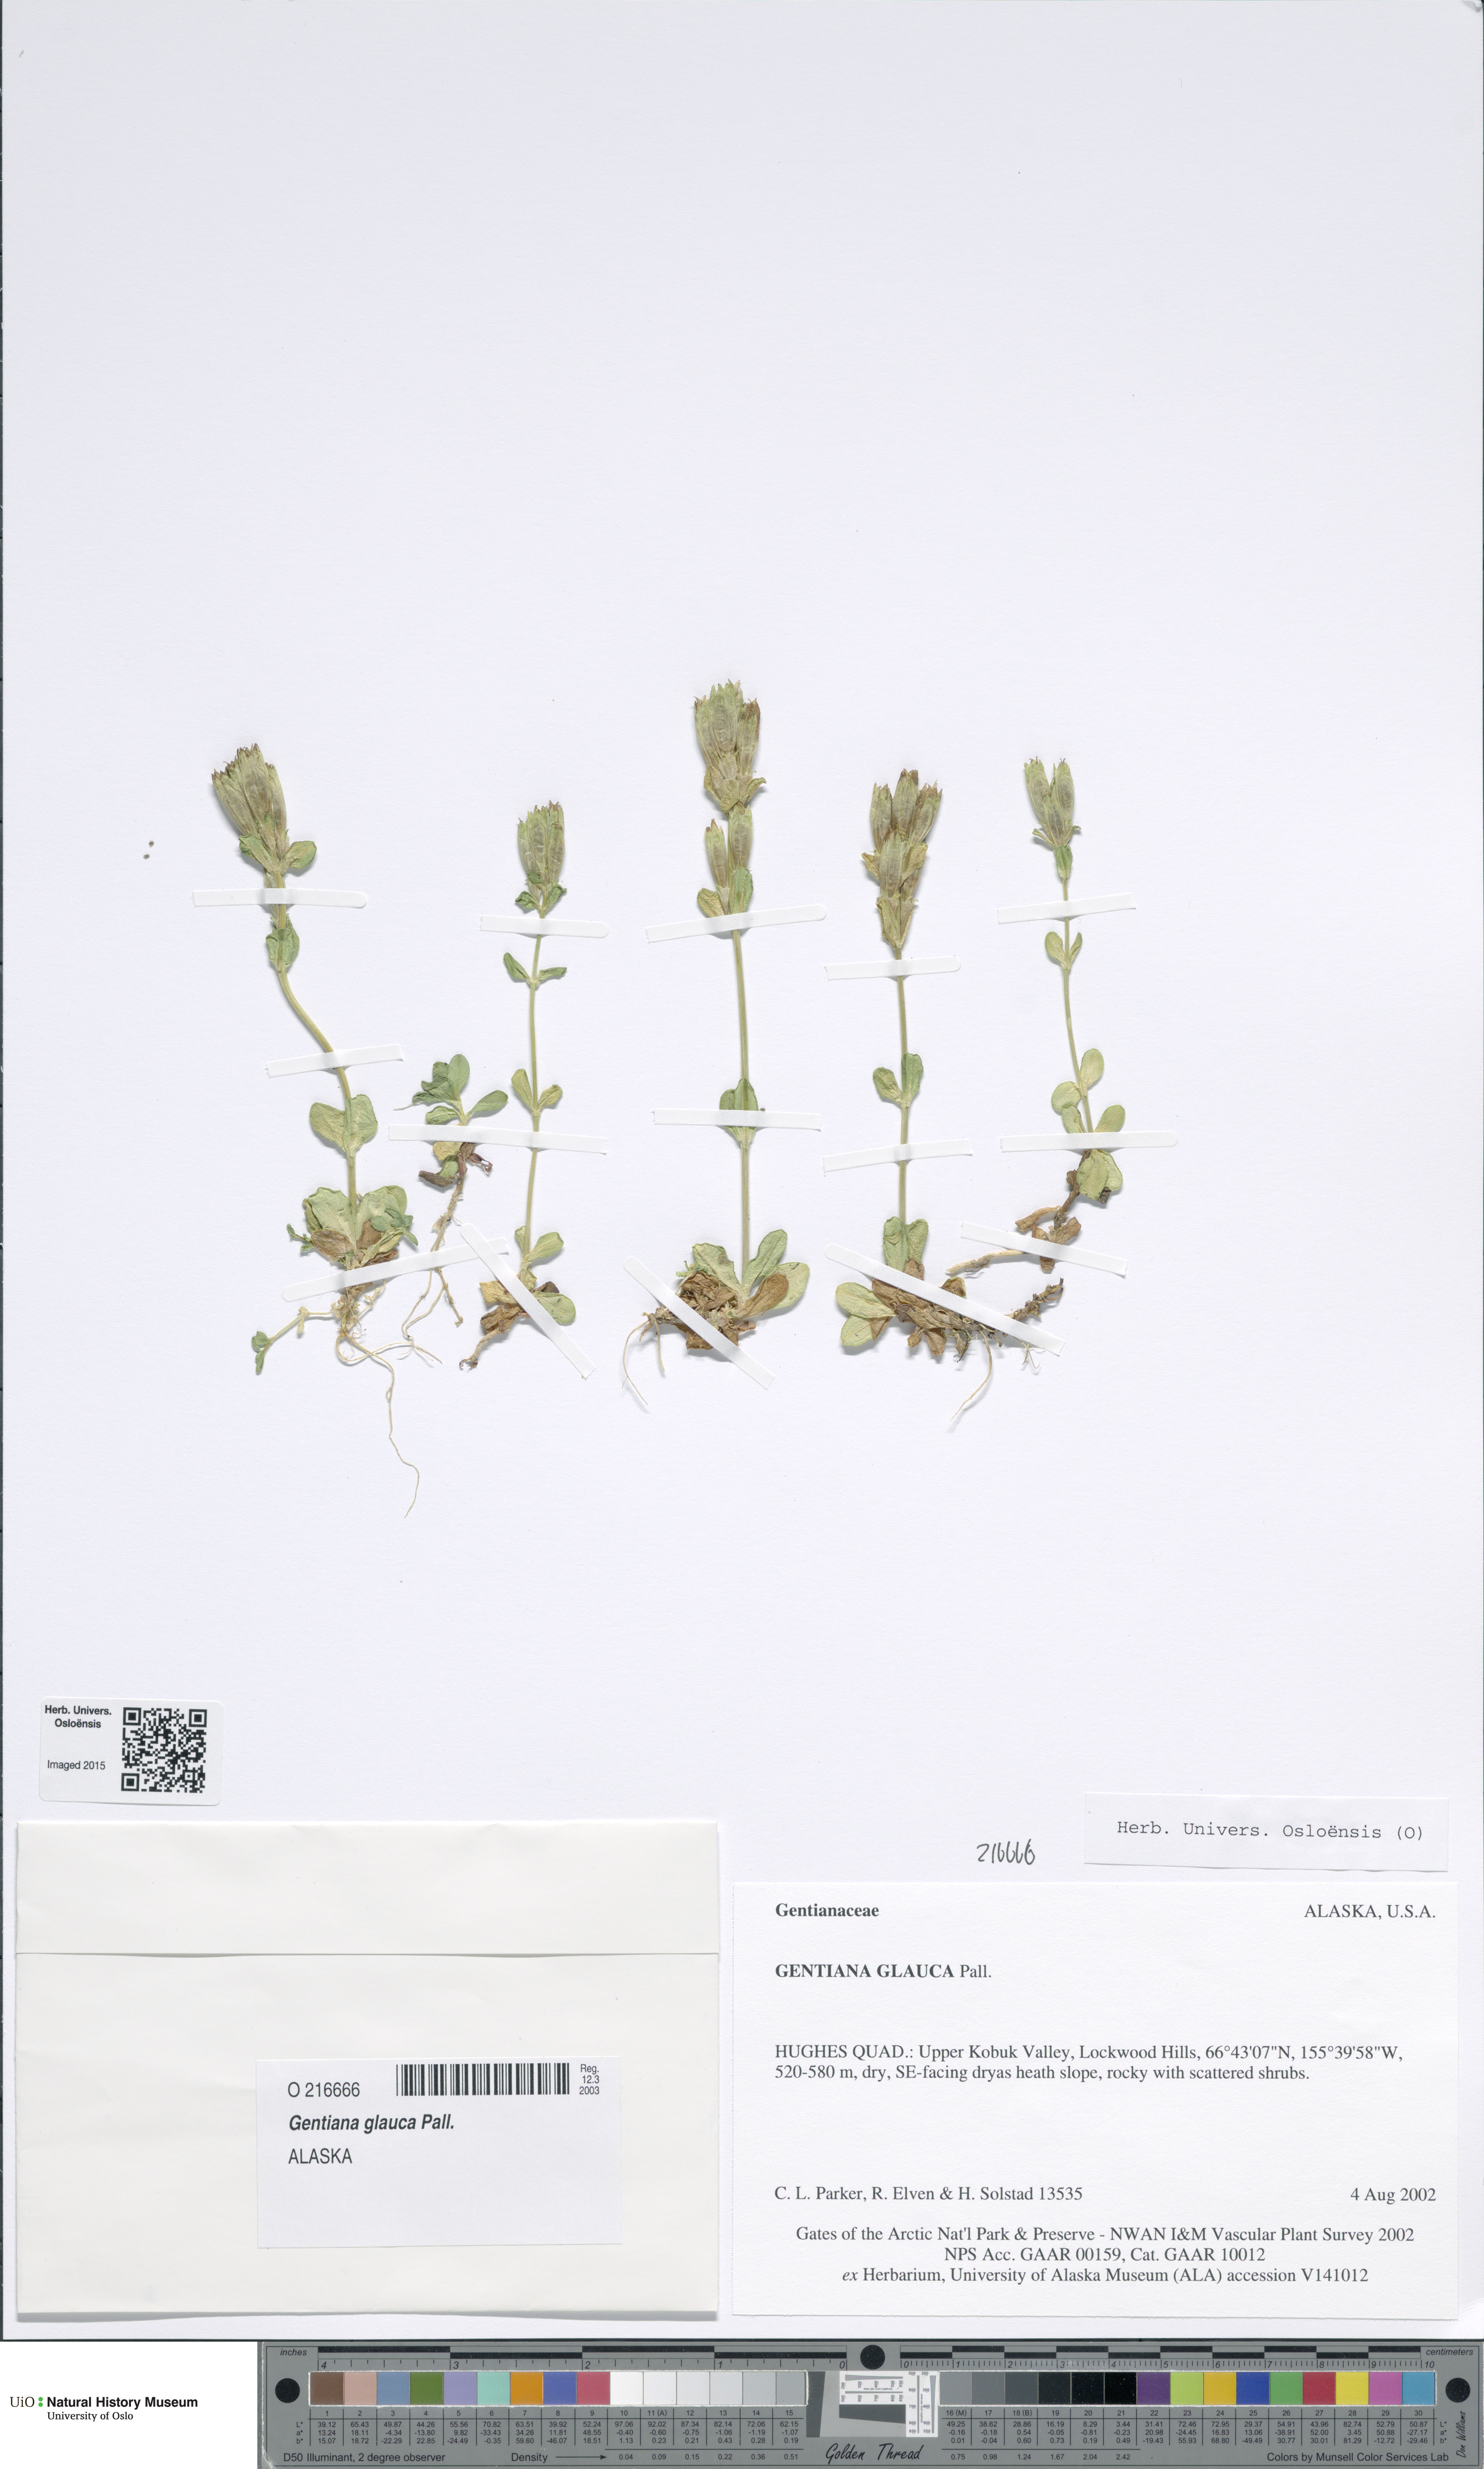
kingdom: Plantae
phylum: Tracheophyta
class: Magnoliopsida
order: Gentianales
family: Gentianaceae
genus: Gentiana
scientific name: Gentiana glauca
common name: Alpine gentian
